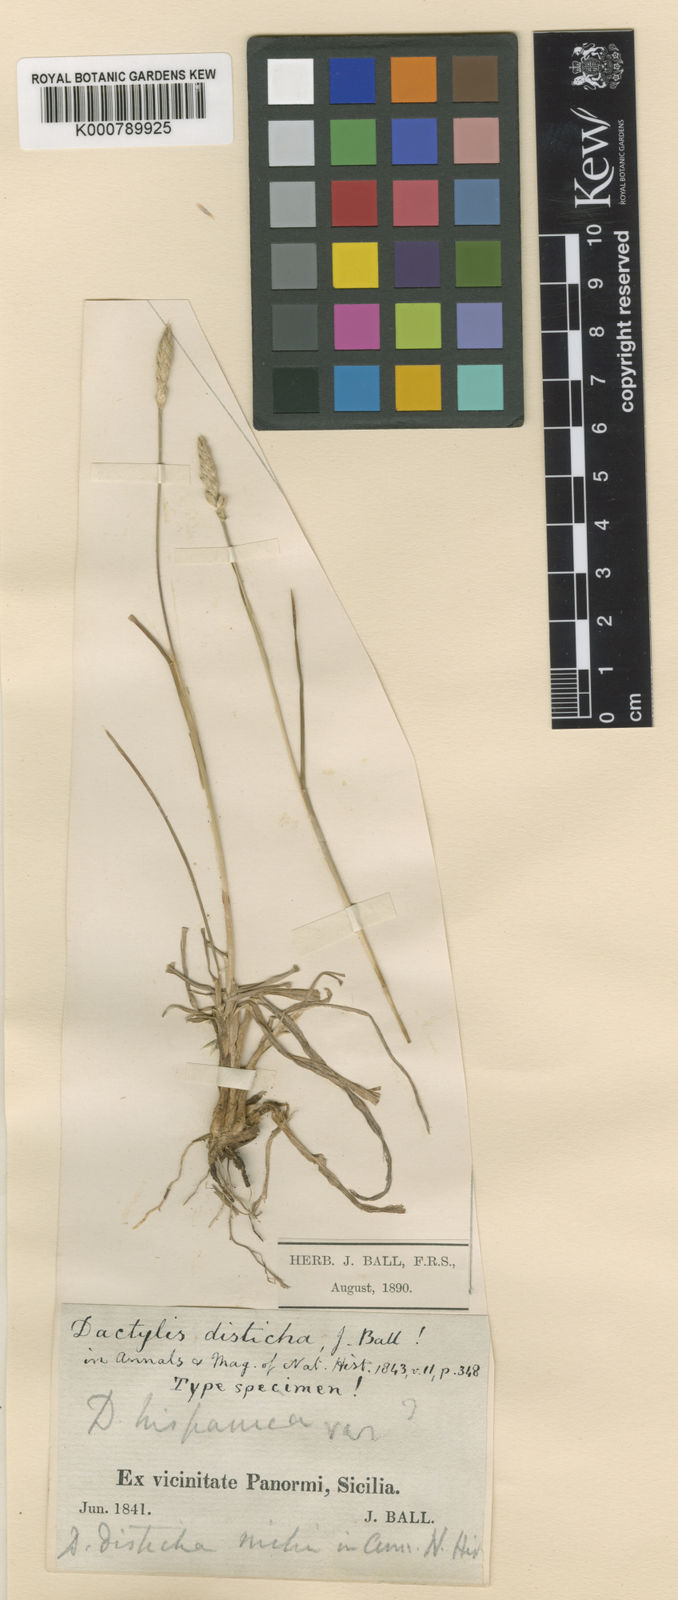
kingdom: Plantae
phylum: Tracheophyta
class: Liliopsida
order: Poales
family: Poaceae
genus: Dactylis
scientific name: Dactylis glomerata
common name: Orchardgrass
